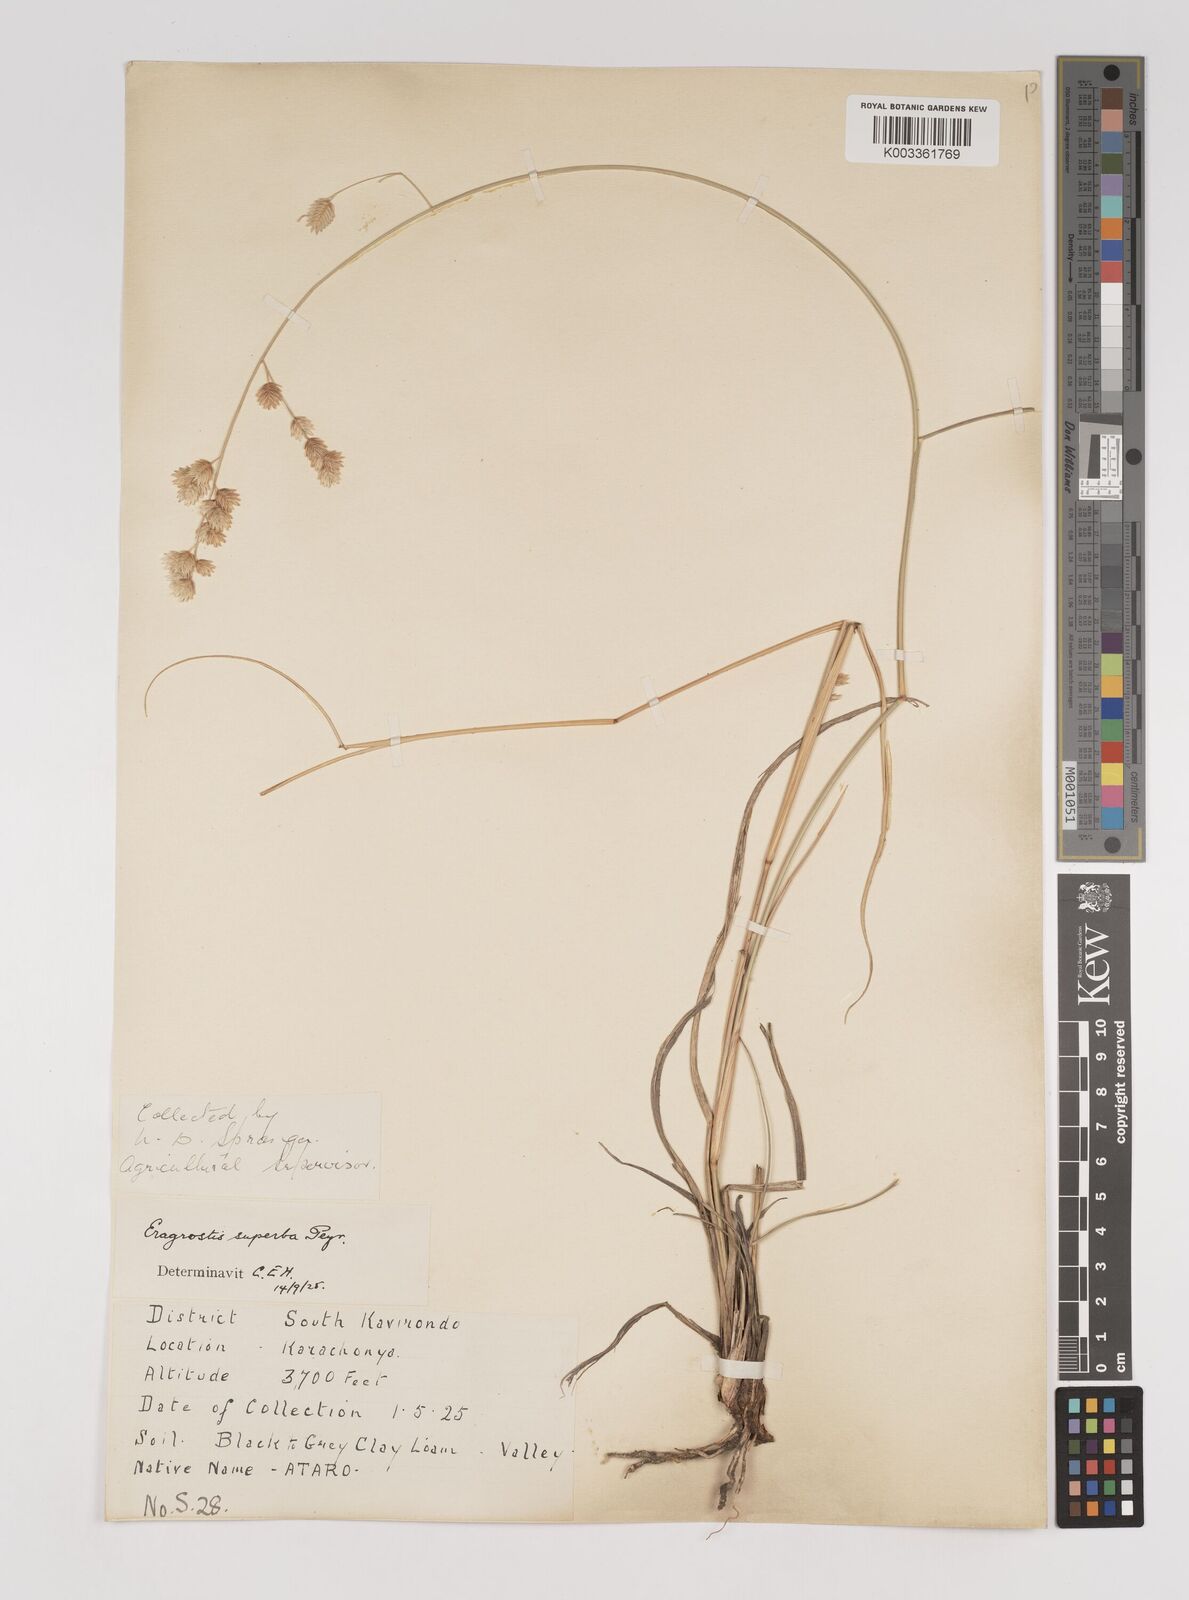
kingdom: Plantae
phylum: Tracheophyta
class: Liliopsida
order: Poales
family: Poaceae
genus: Eragrostis
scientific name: Eragrostis superba
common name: Wilman lovegrass
